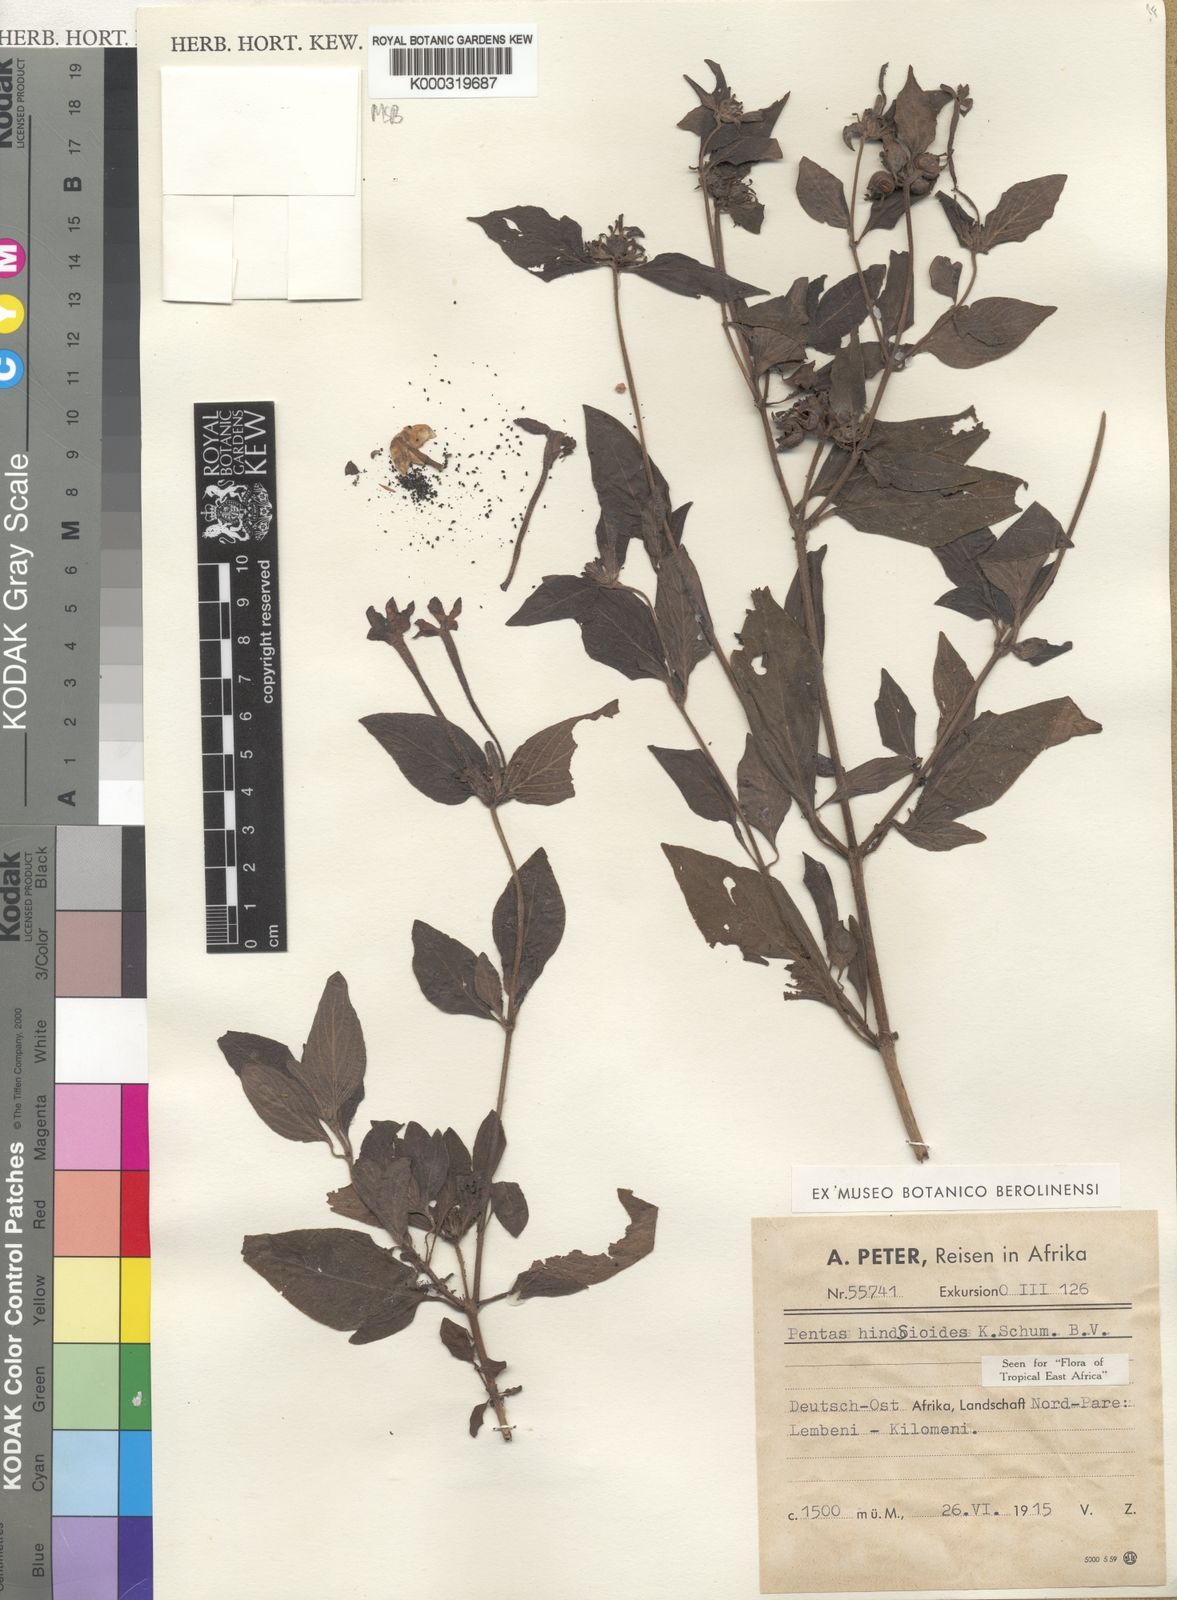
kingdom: Plantae
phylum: Tracheophyta
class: Magnoliopsida
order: Gentianales
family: Rubiaceae
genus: Chamaepentas
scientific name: Chamaepentas hindsioides
